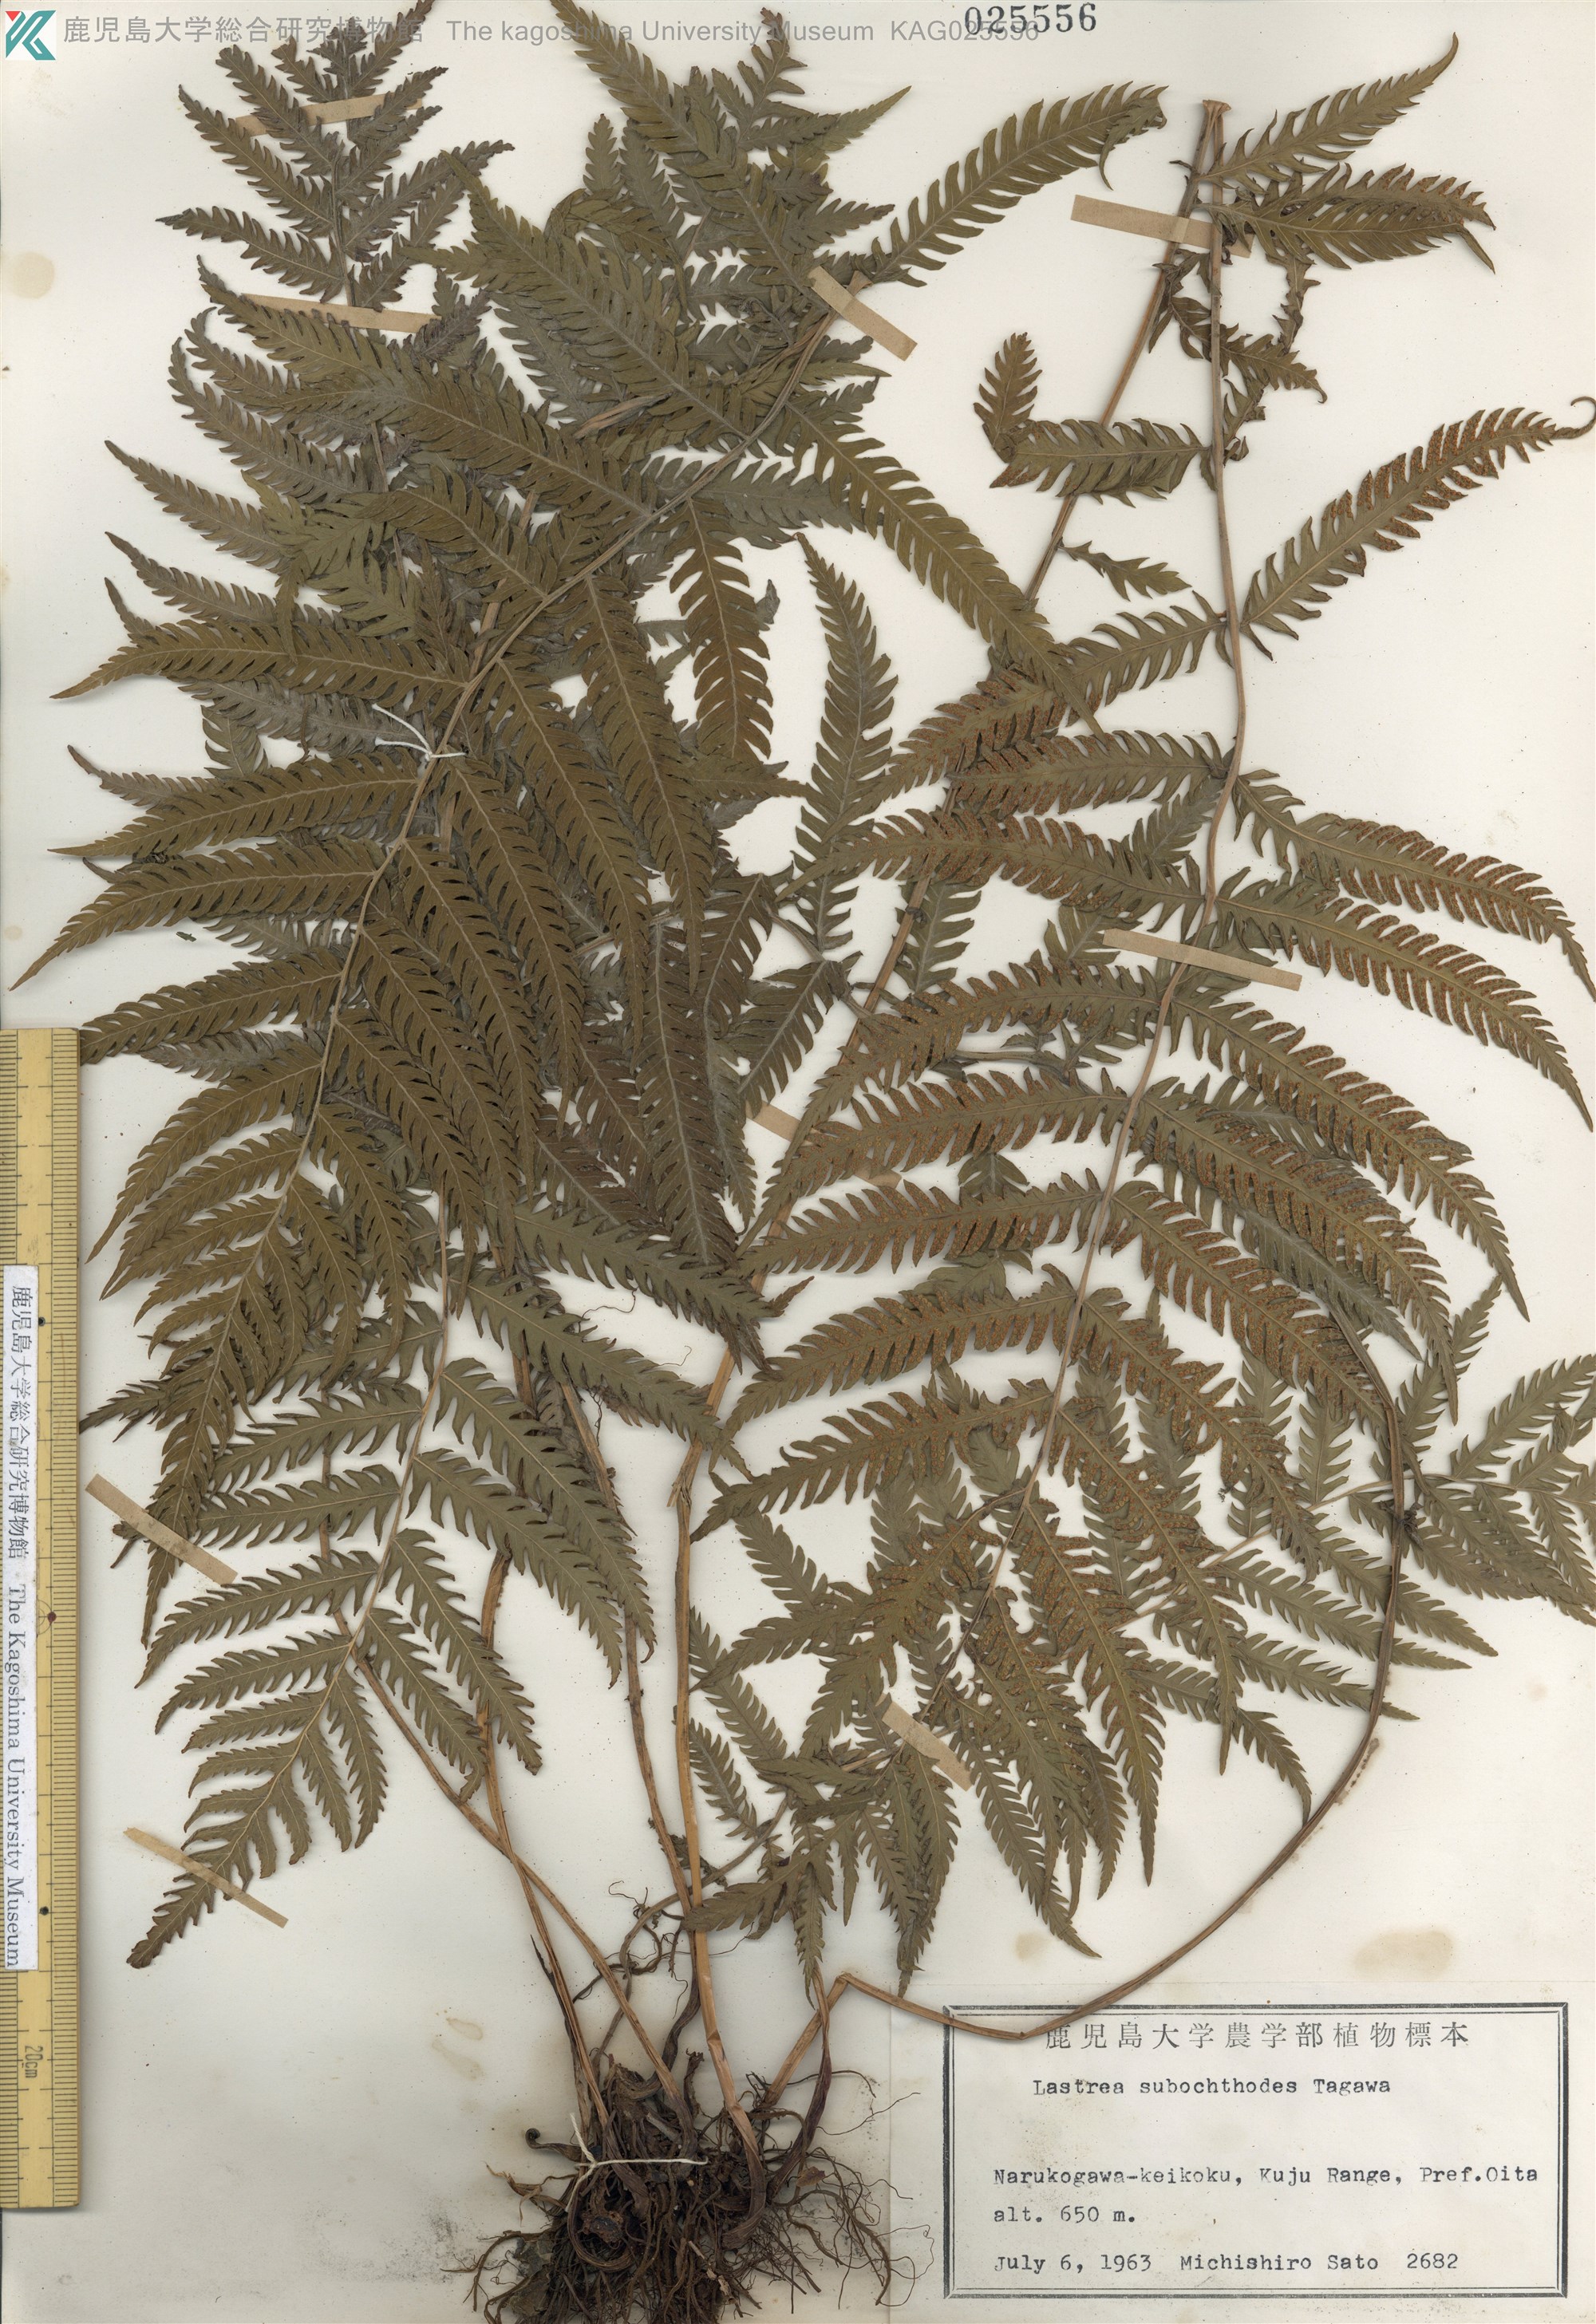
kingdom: Plantae
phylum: Tracheophyta
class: Polypodiopsida
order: Polypodiales
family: Thelypteridaceae
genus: Pseudocyclosorus
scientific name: Pseudocyclosorus esquirolii
